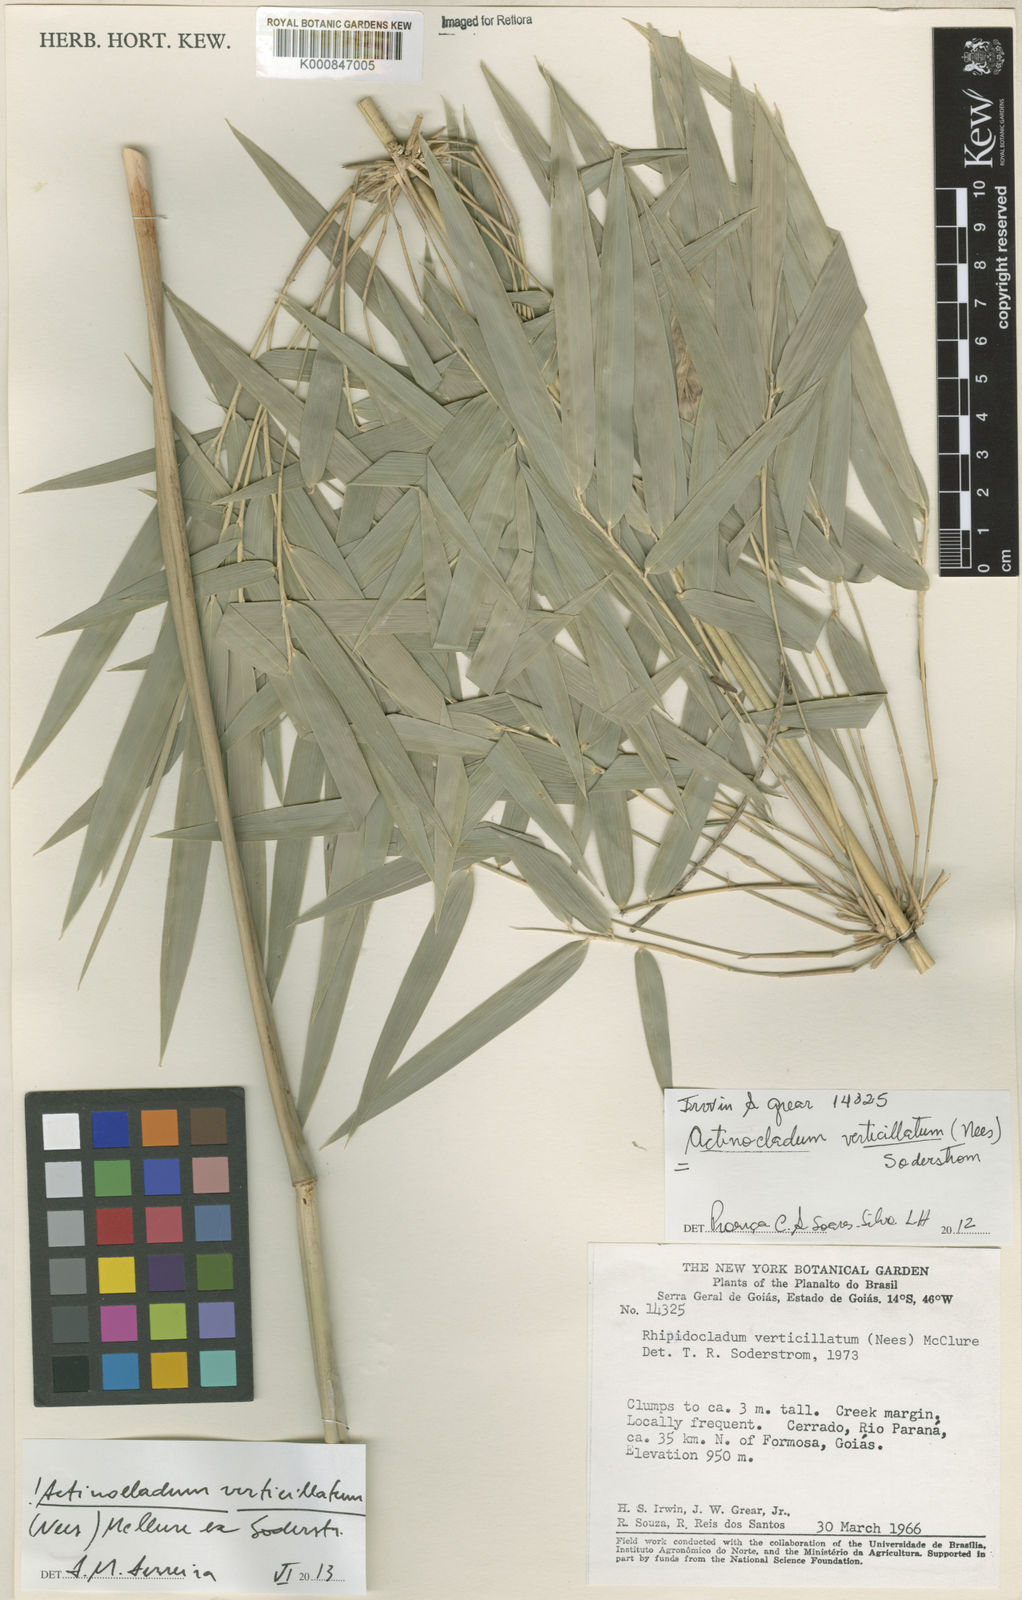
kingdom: Plantae
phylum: Tracheophyta
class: Liliopsida
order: Poales
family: Poaceae
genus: Actinocladum
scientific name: Actinocladum verticillatum
